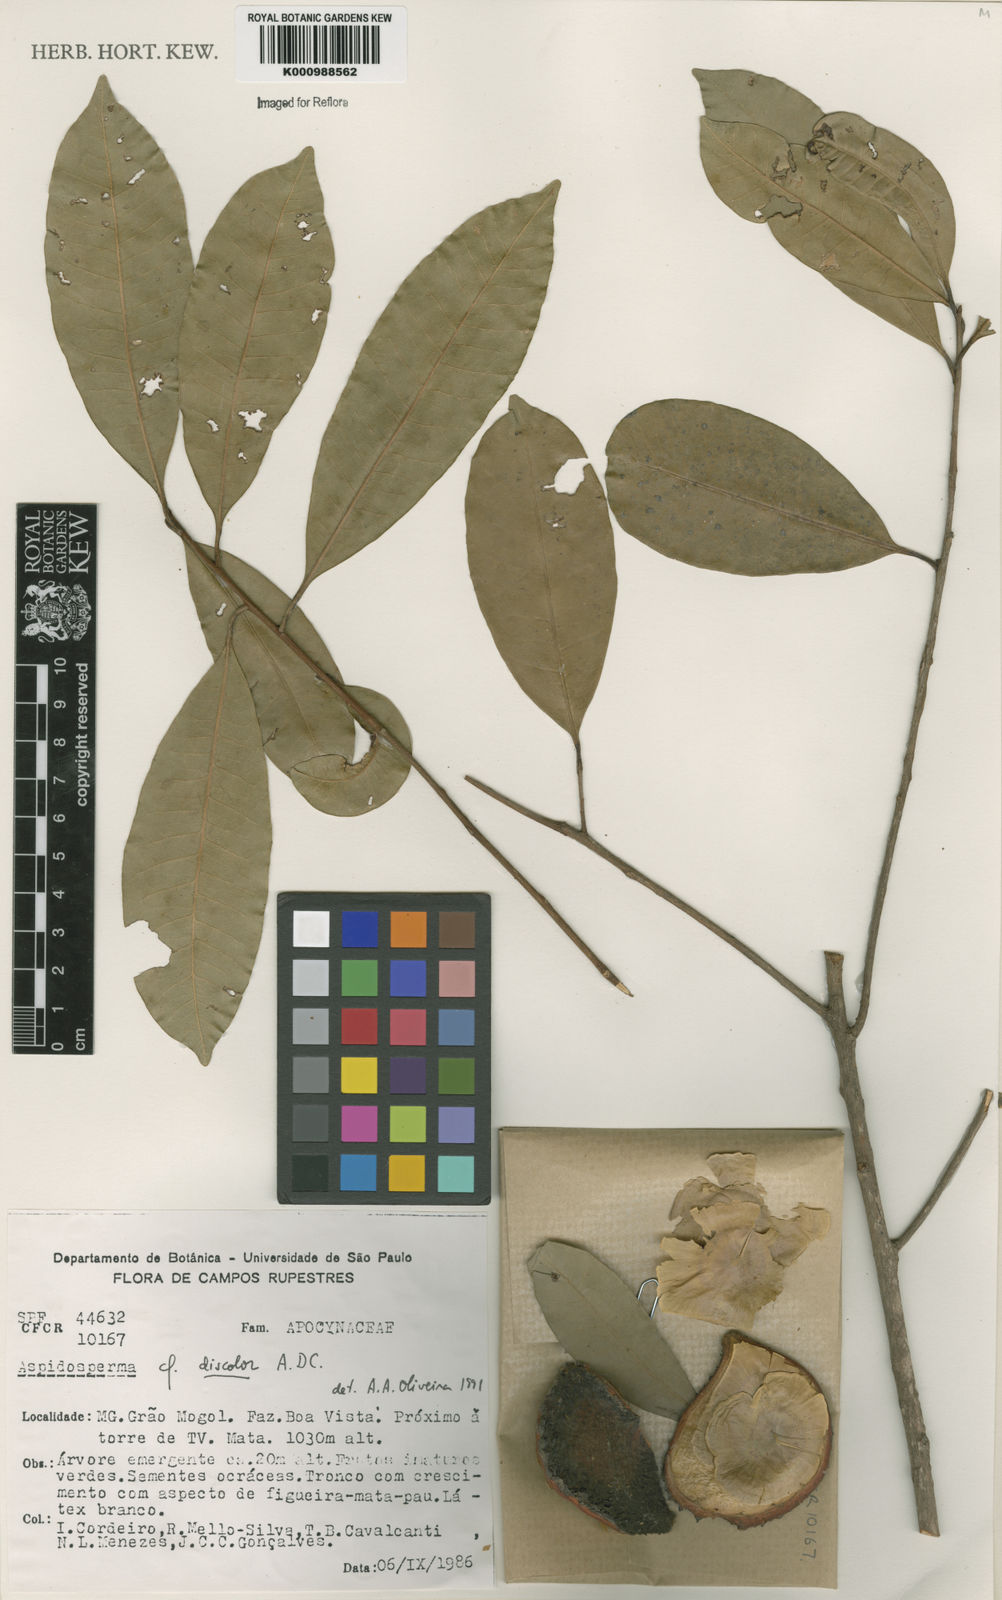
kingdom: Plantae
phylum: Tracheophyta
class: Magnoliopsida
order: Gentianales
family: Apocynaceae
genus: Aspidosperma
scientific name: Aspidosperma discolor
